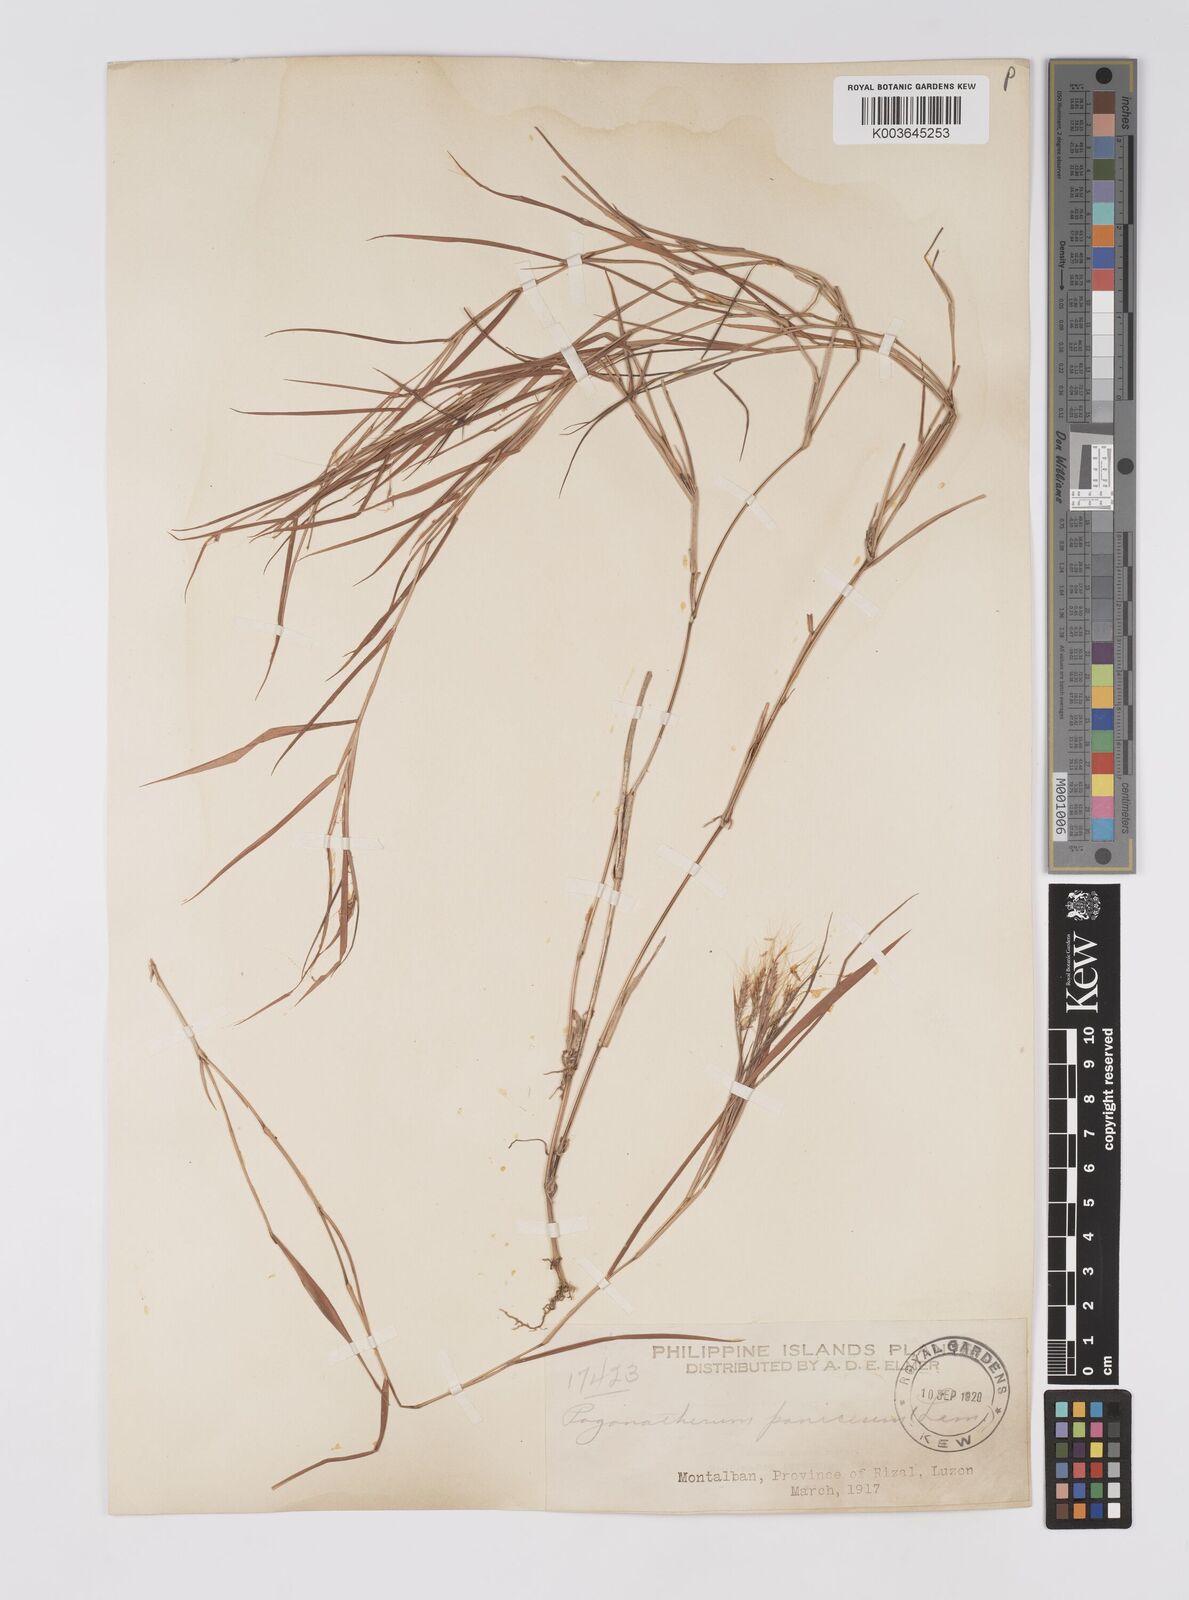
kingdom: Plantae
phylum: Tracheophyta
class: Liliopsida
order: Poales
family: Poaceae
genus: Pogonatherum
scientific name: Pogonatherum paniceum
